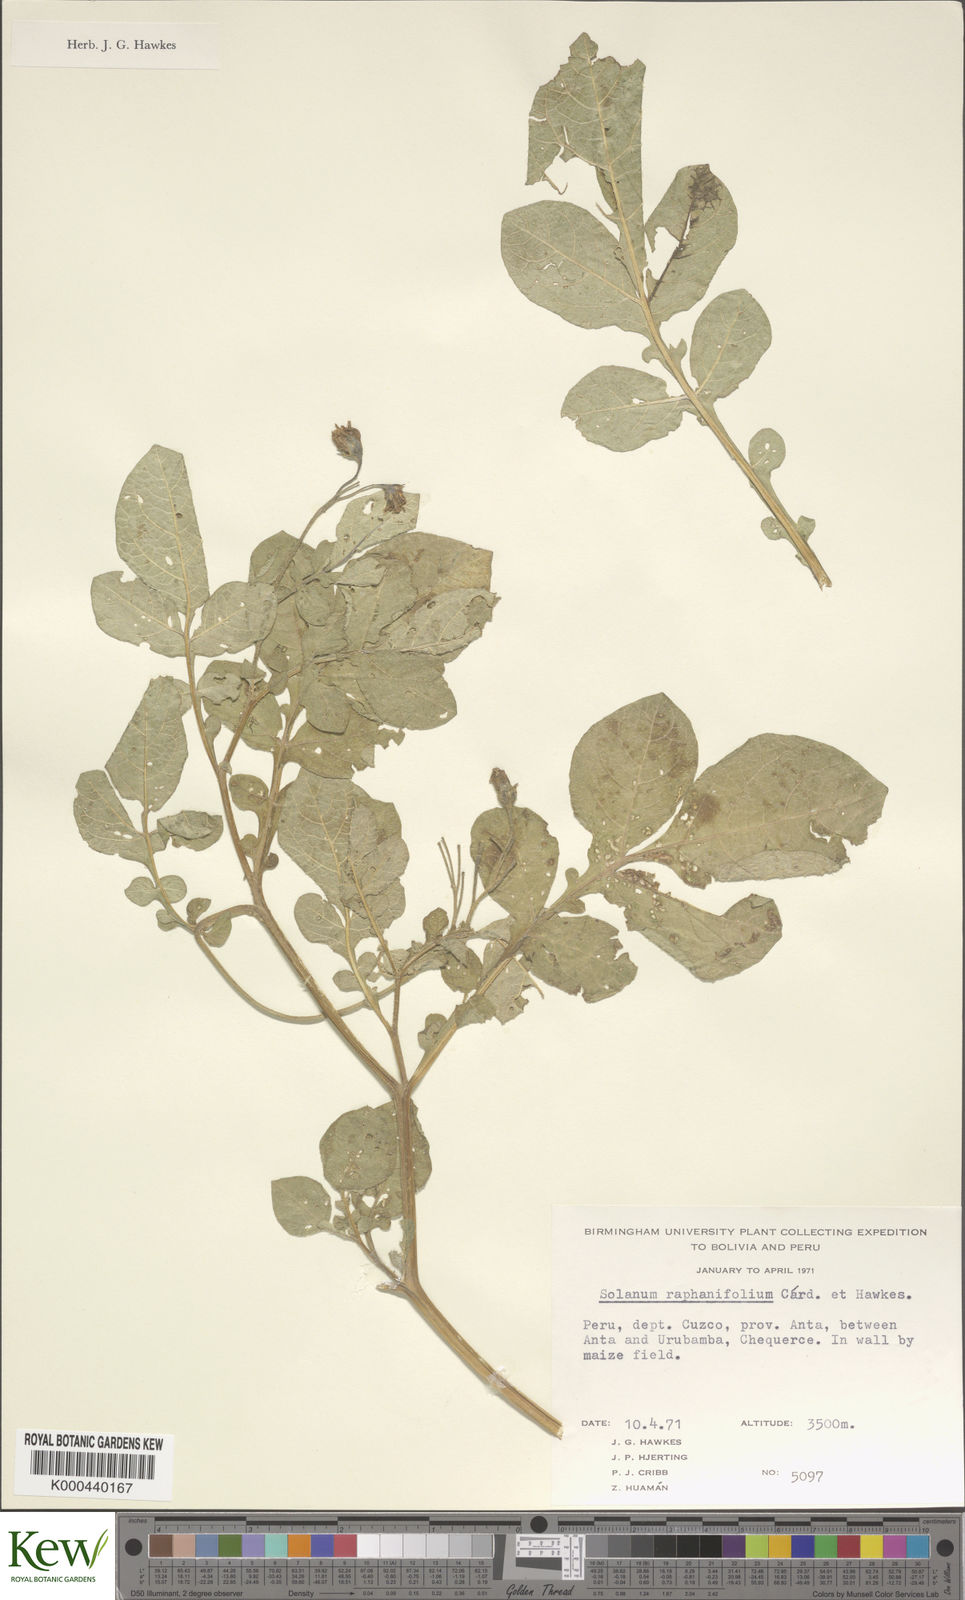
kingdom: Plantae
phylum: Tracheophyta
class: Magnoliopsida
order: Solanales
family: Solanaceae
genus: Solanum
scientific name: Solanum raphanifolium
